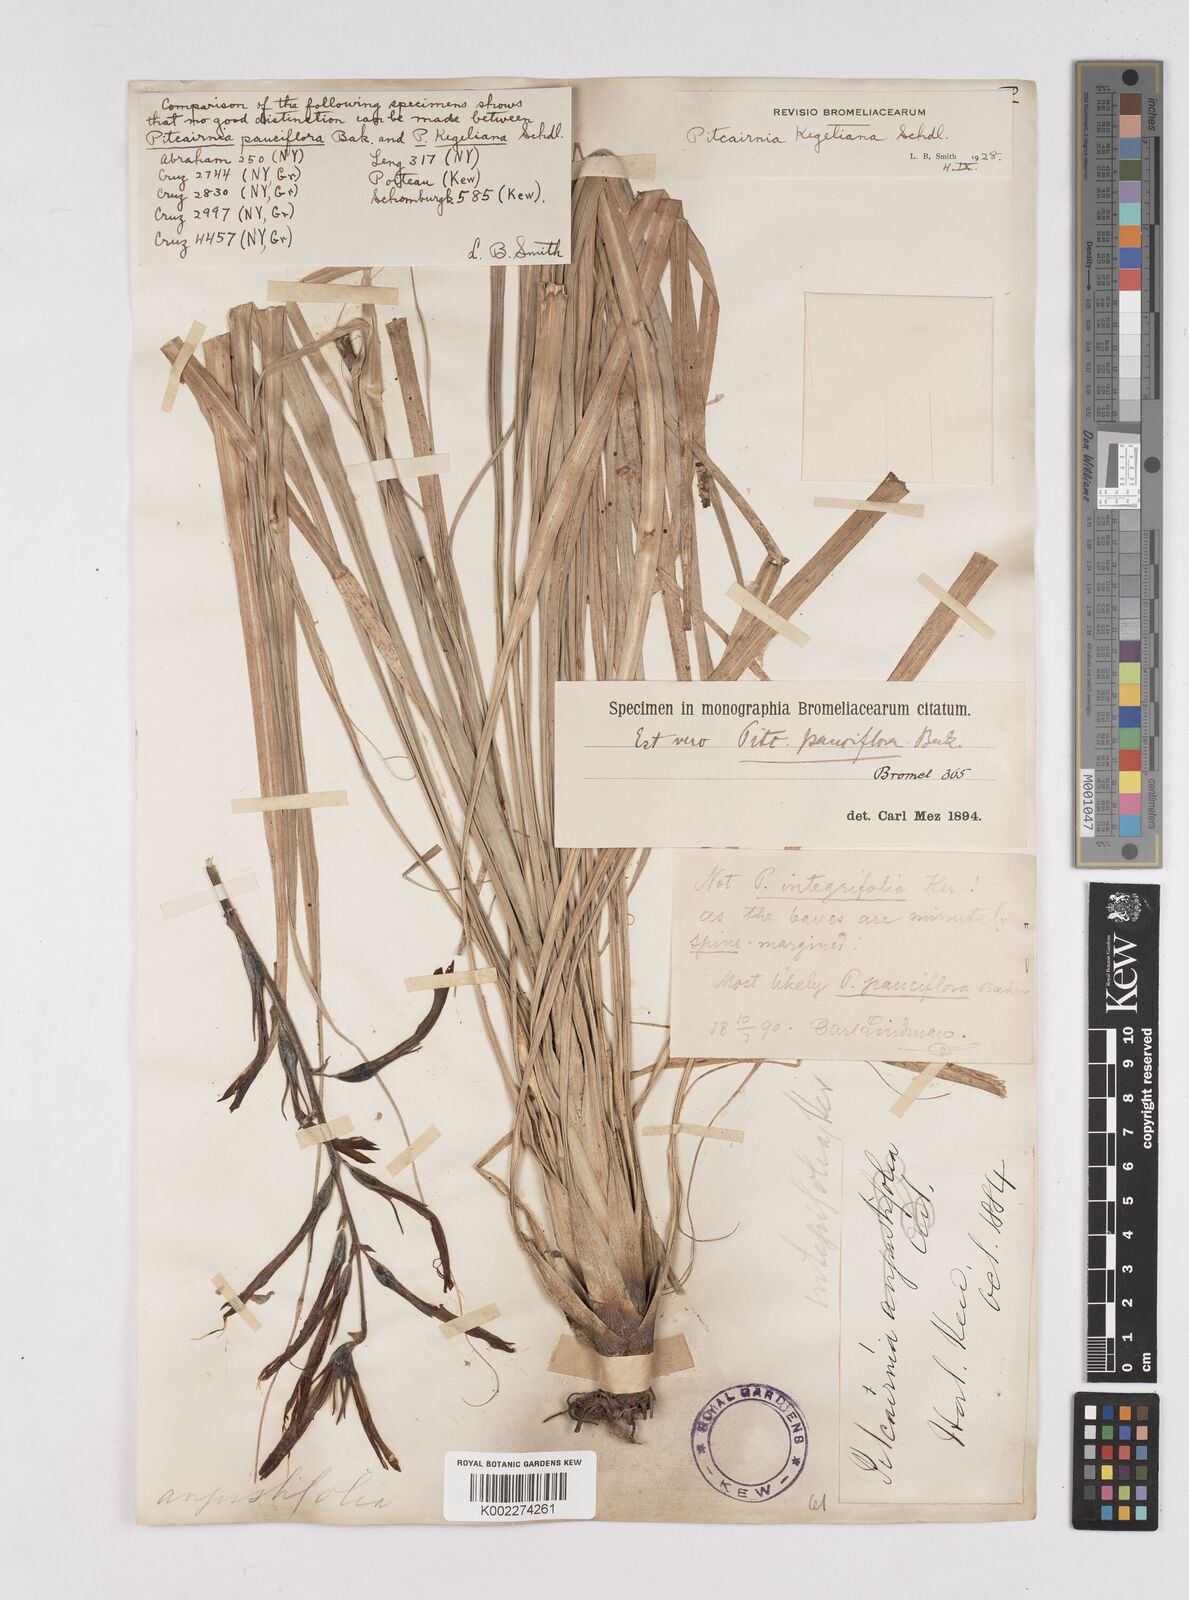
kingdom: Plantae
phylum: Tracheophyta
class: Liliopsida
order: Poales
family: Bromeliaceae
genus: Pitcairnia
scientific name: Pitcairnia caricifolia
